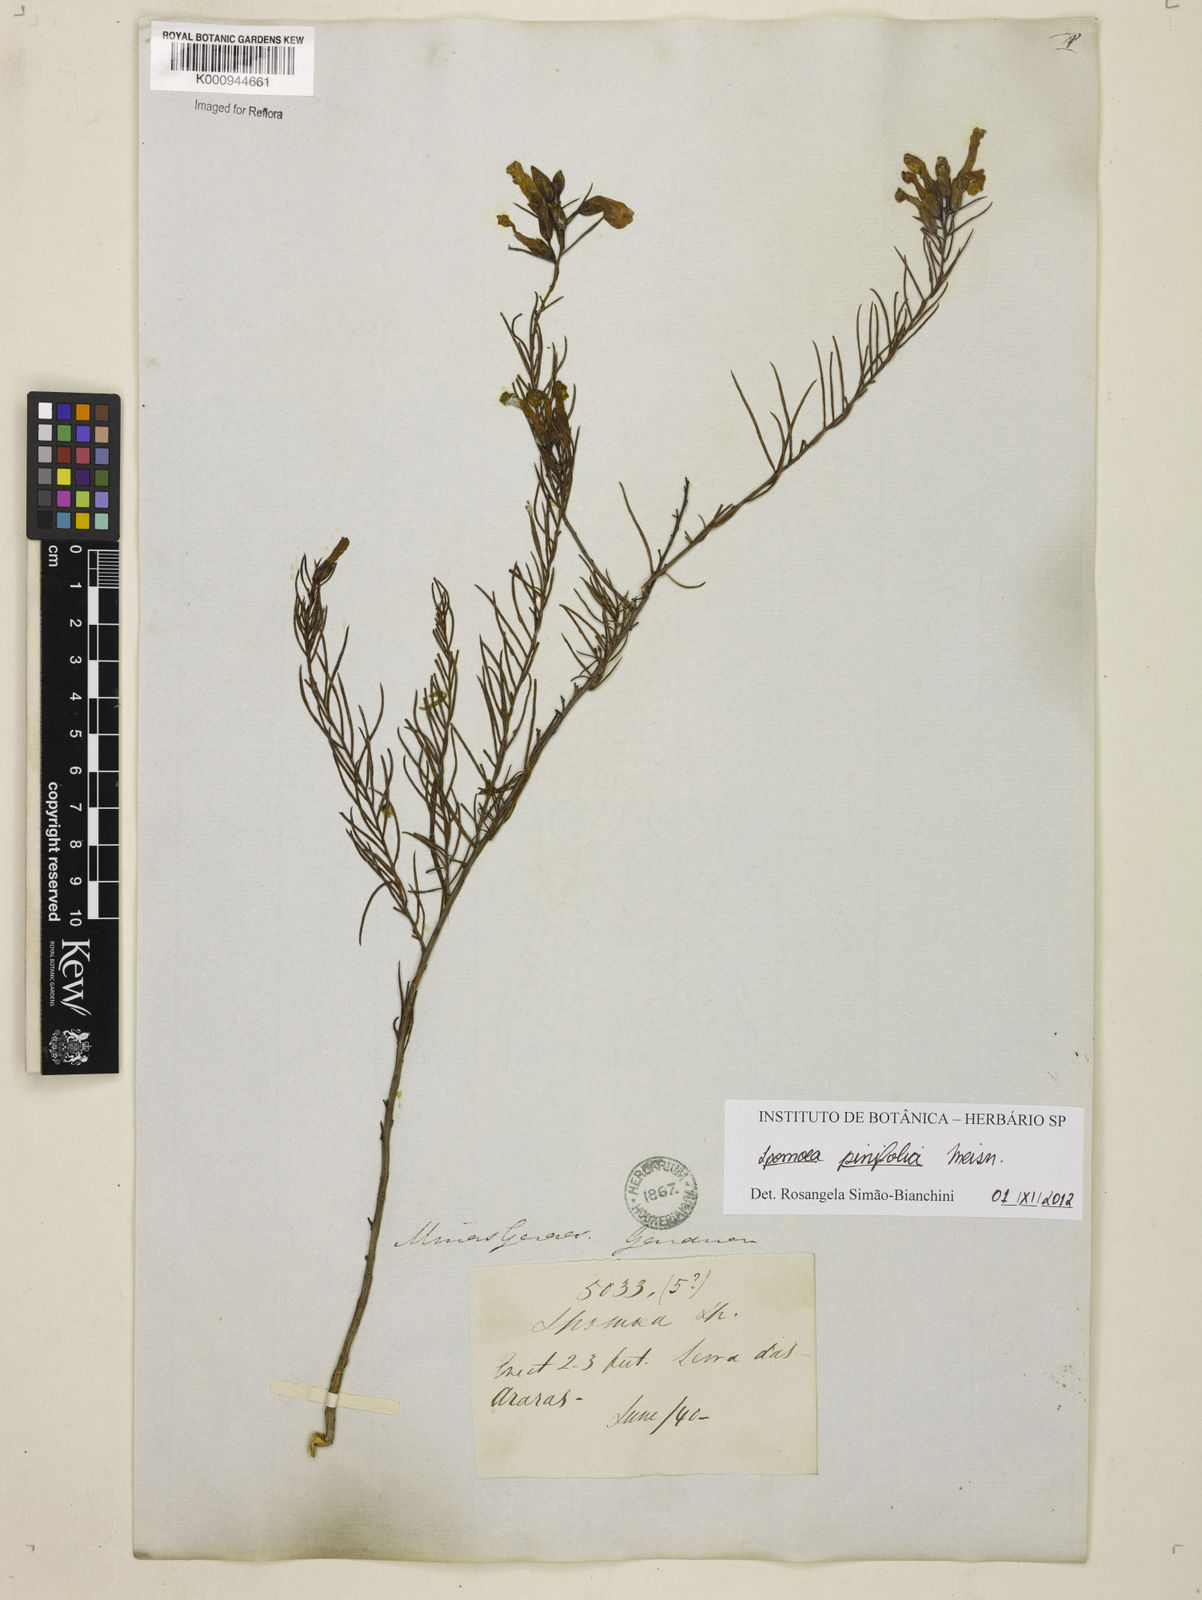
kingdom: Plantae
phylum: Tracheophyta
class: Magnoliopsida
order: Solanales
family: Convolvulaceae
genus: Ipomoea
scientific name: Ipomoea pinifolia
